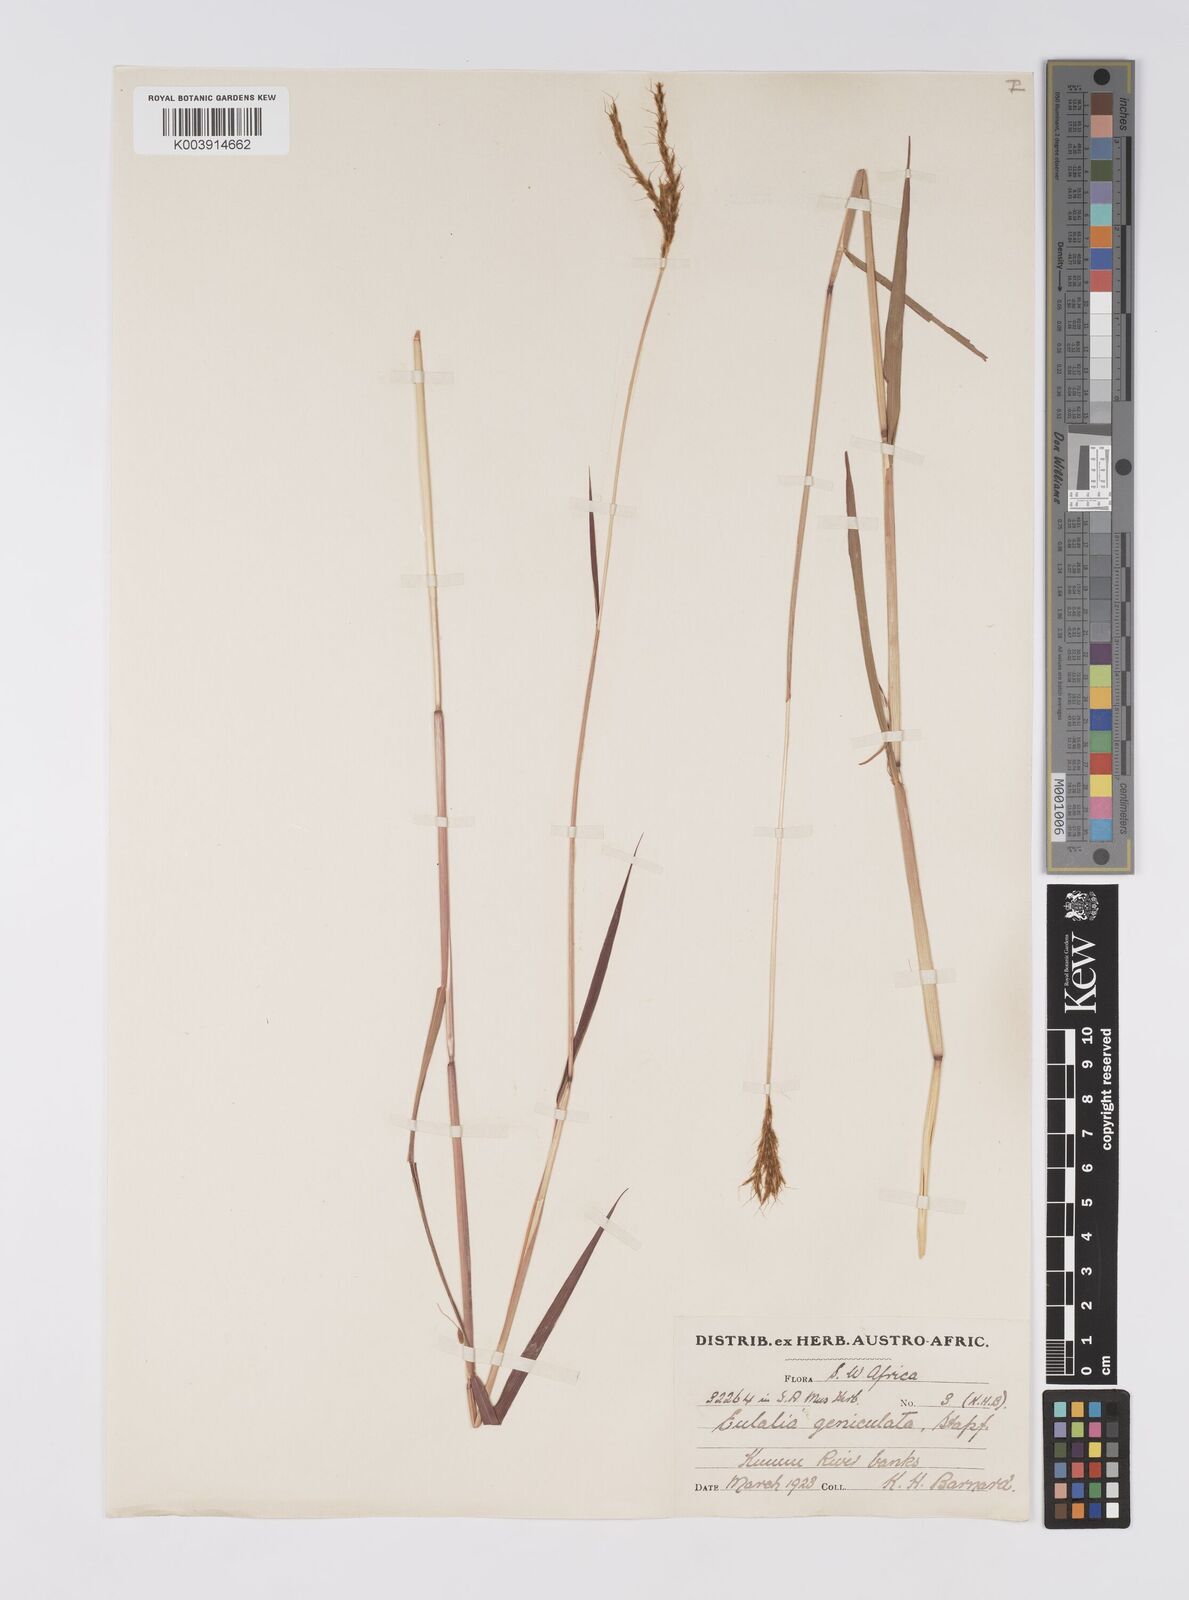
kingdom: Plantae
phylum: Tracheophyta
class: Liliopsida
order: Poales
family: Poaceae
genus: Eulalia
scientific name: Eulalia aurea
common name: Silky browntop
